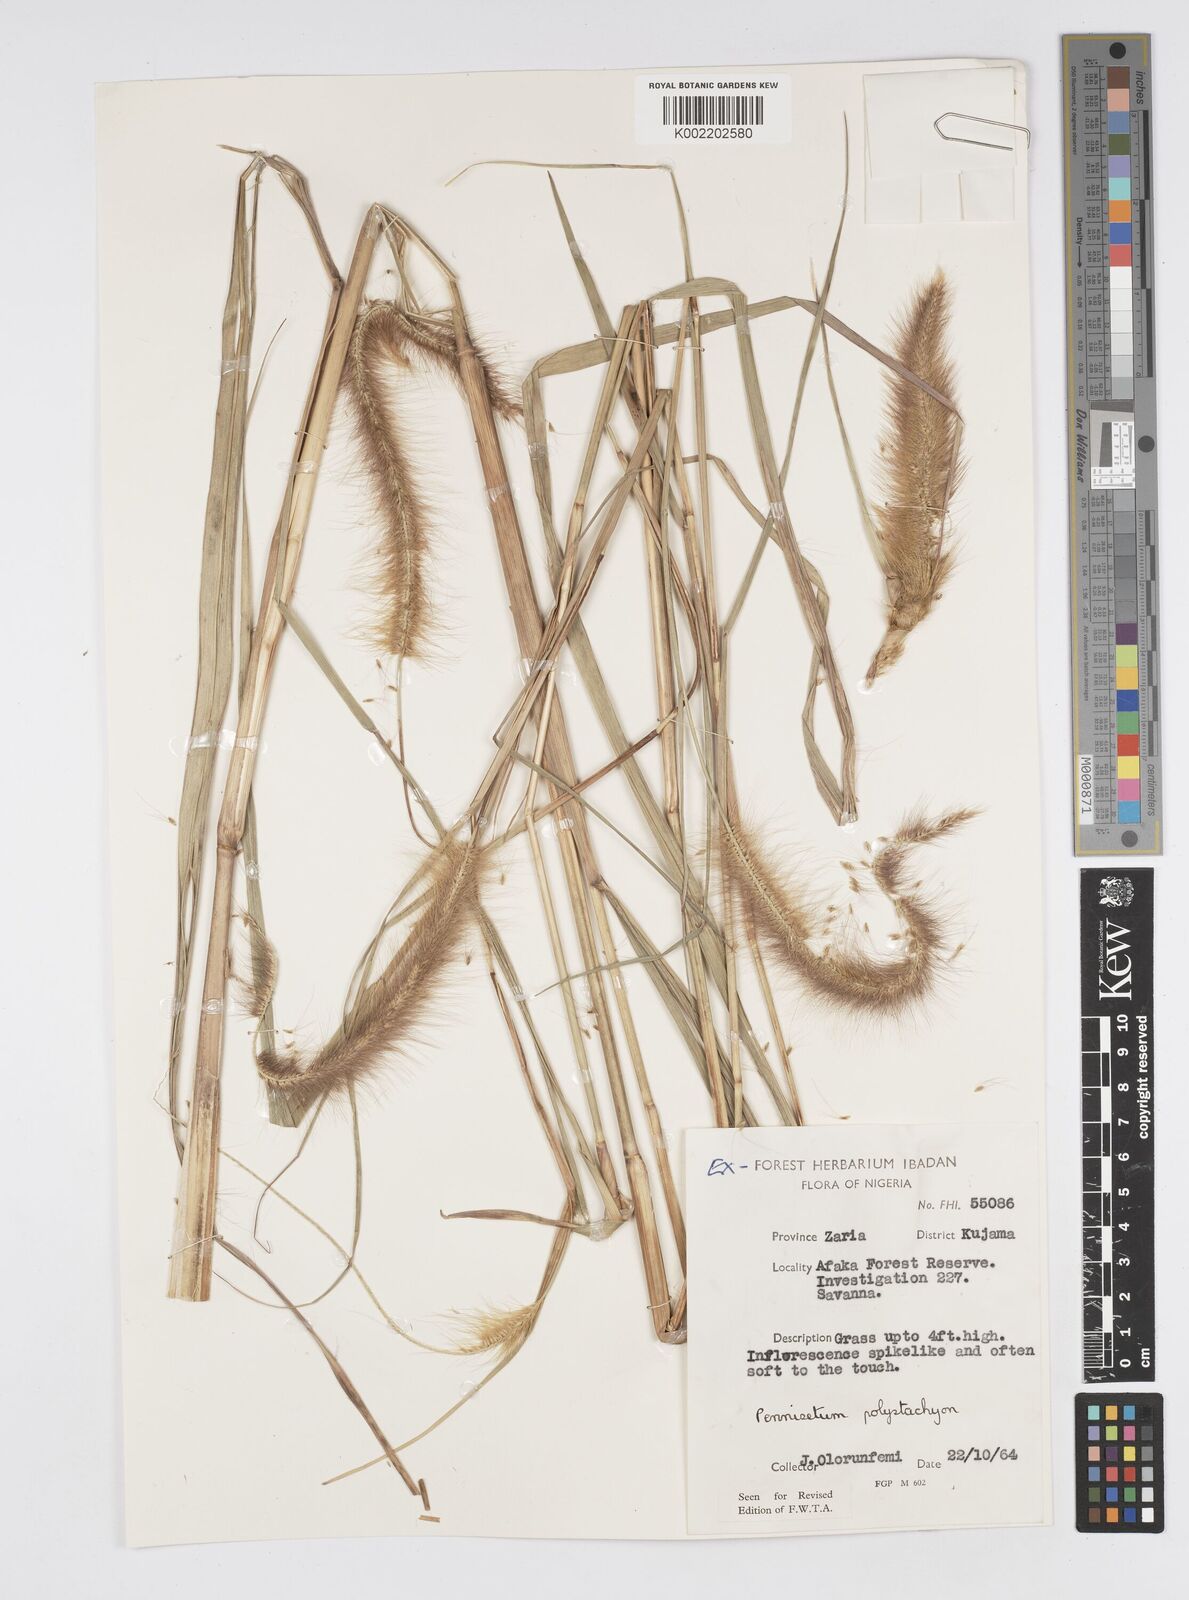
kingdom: Plantae
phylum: Tracheophyta
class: Liliopsida
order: Poales
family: Poaceae
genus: Setaria
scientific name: Setaria parviflora
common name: Knotroot bristle-grass
